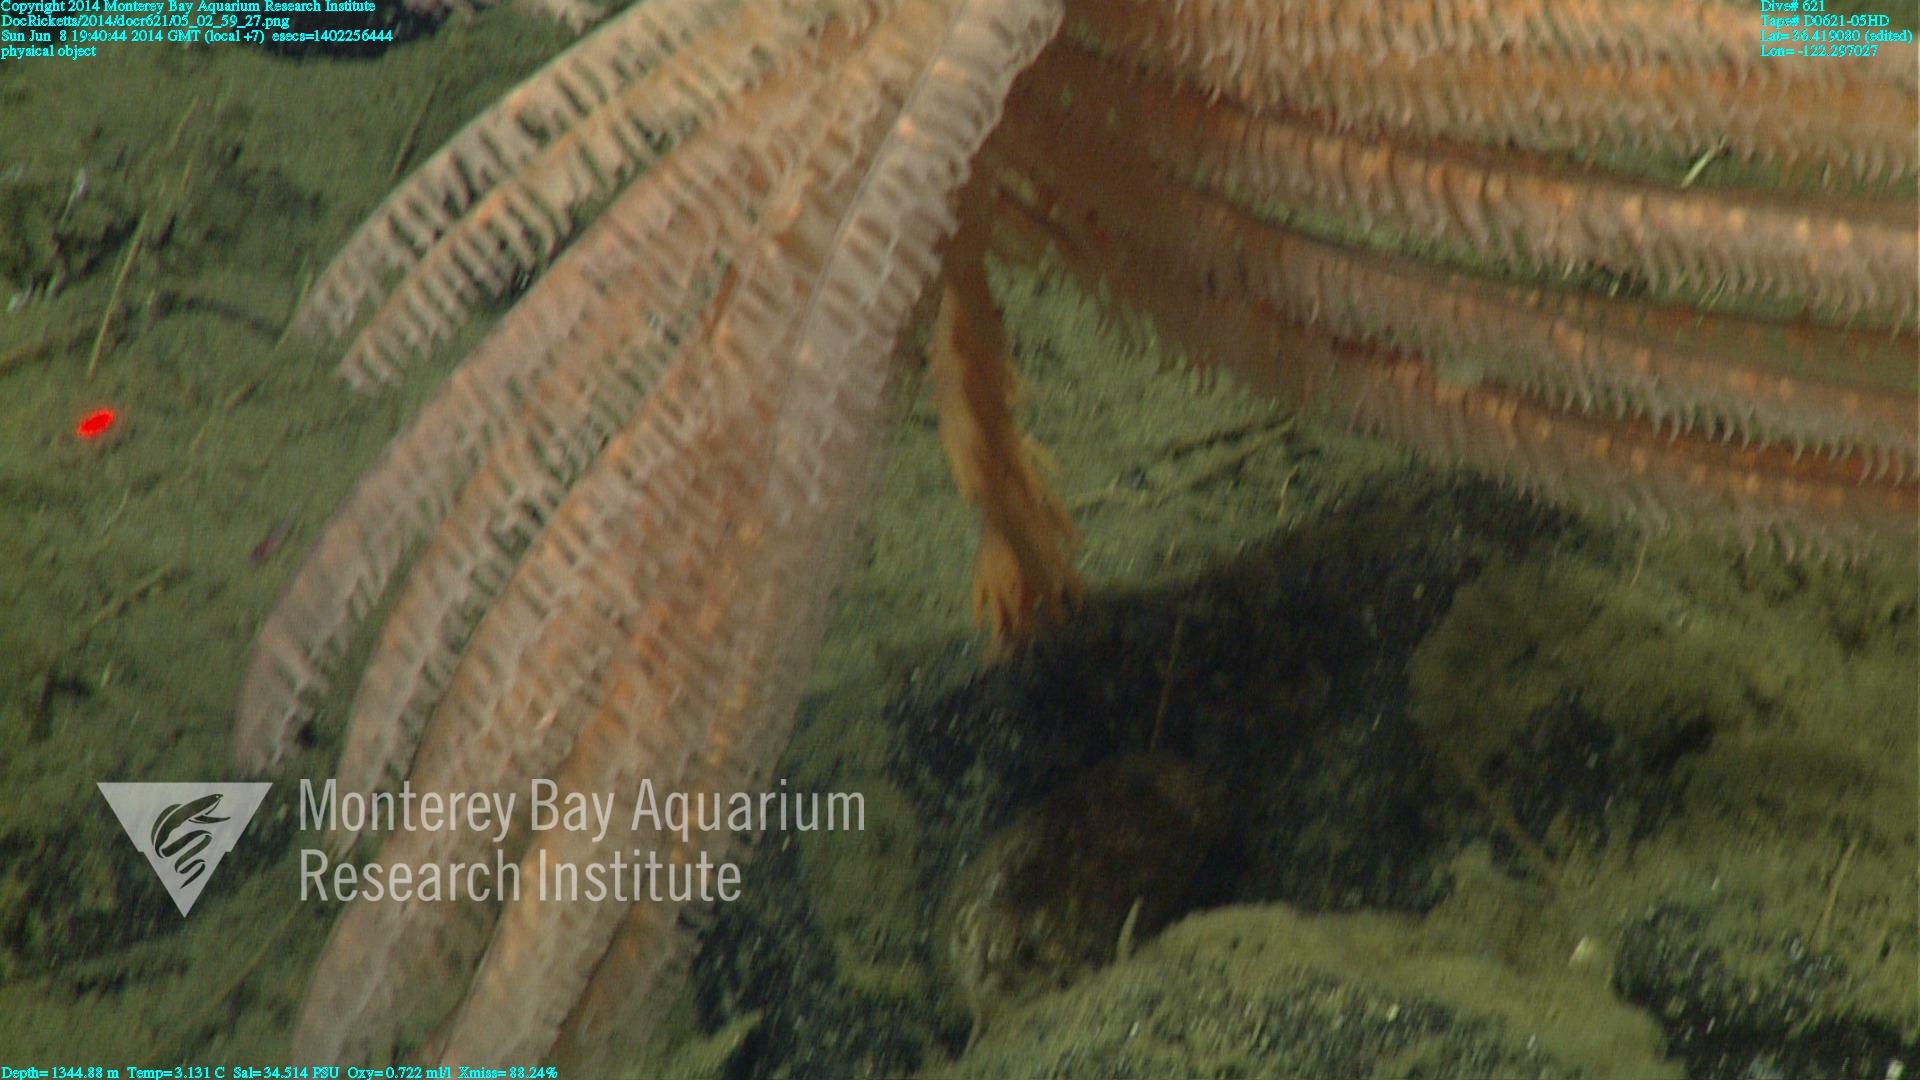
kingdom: Animalia
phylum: Cnidaria
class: Anthozoa
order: Antipatharia
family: Schizopathidae
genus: Bathypathes
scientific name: Bathypathes
